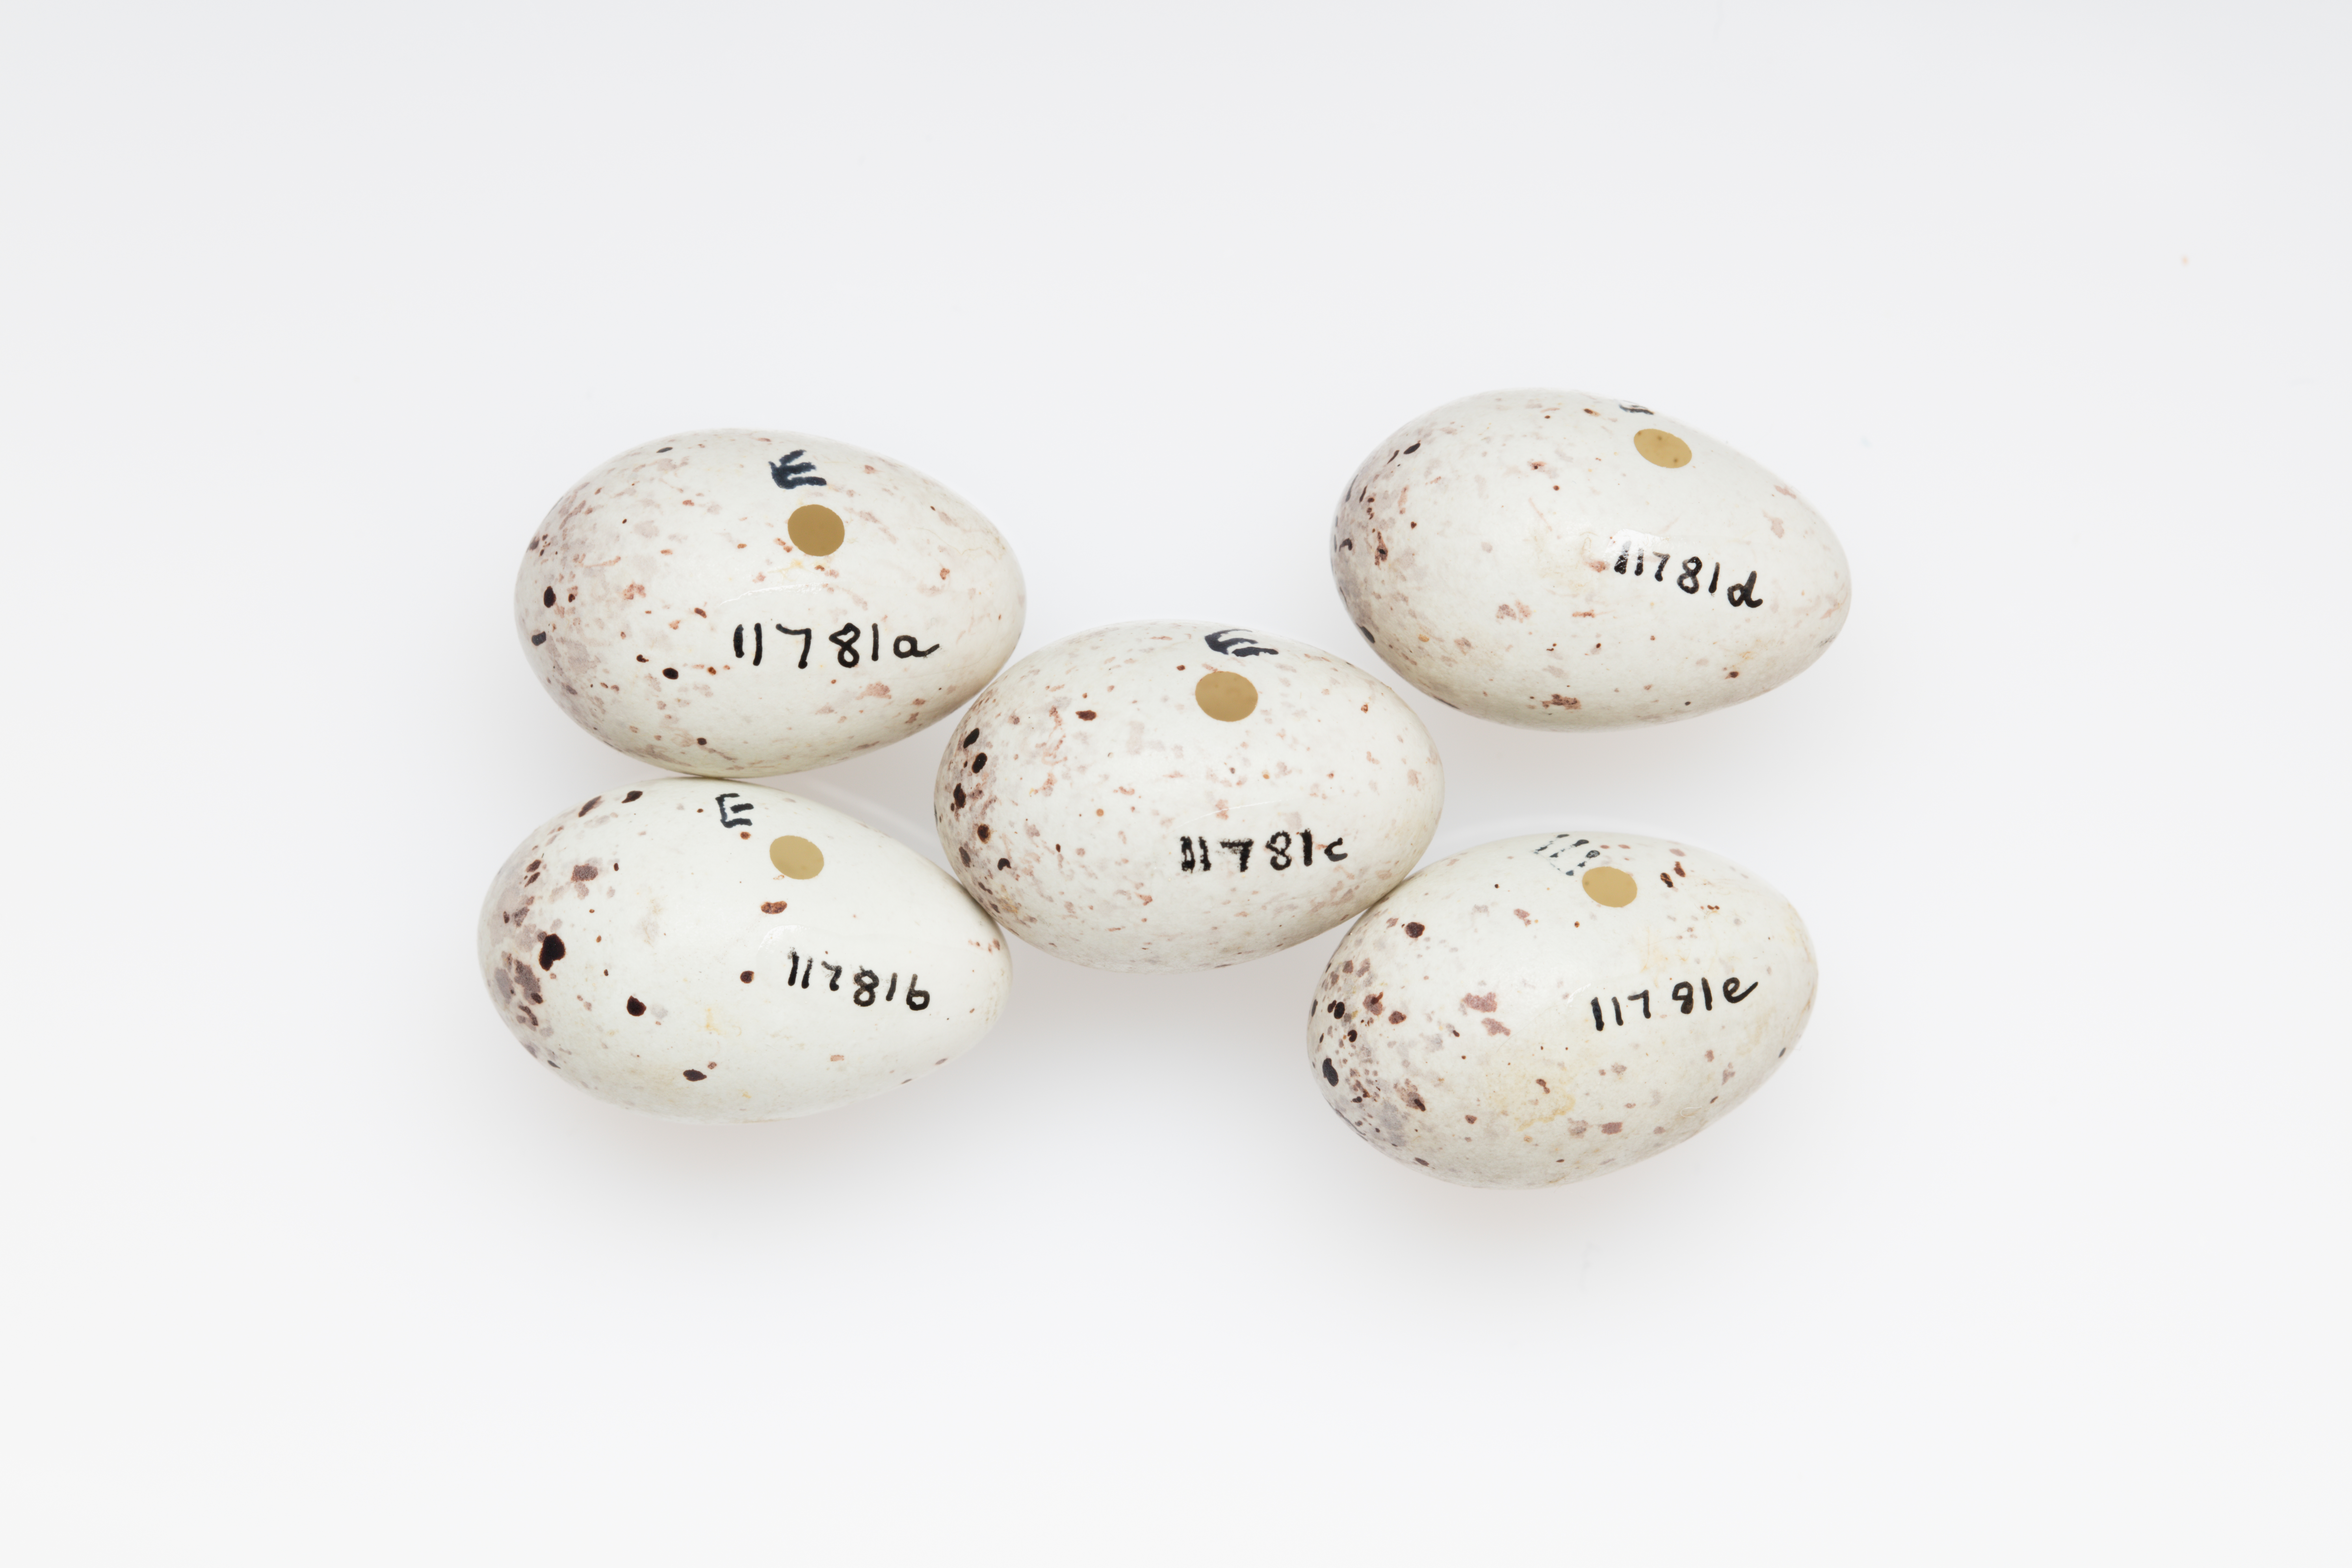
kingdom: Plantae
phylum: Tracheophyta
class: Liliopsida
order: Poales
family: Poaceae
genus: Chloris
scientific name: Chloris chloris
